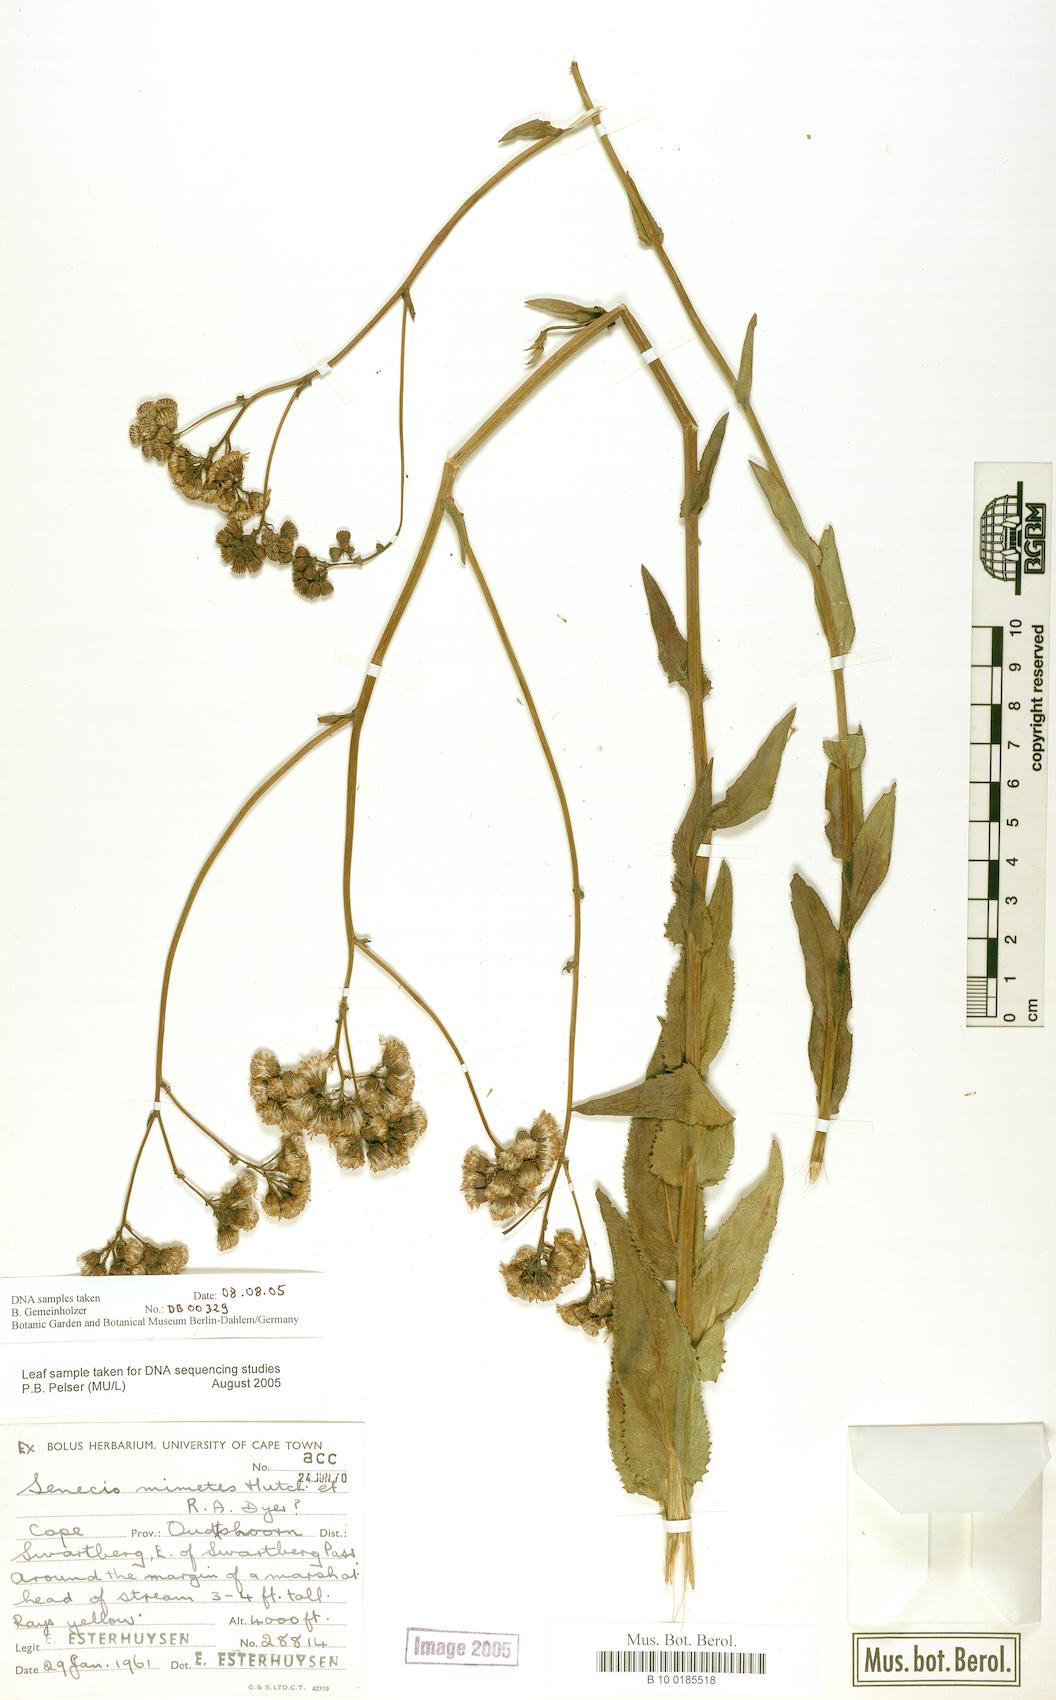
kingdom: Plantae
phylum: Tracheophyta
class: Magnoliopsida
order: Asterales
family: Asteraceae
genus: Senecio
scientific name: Senecio mimetes
